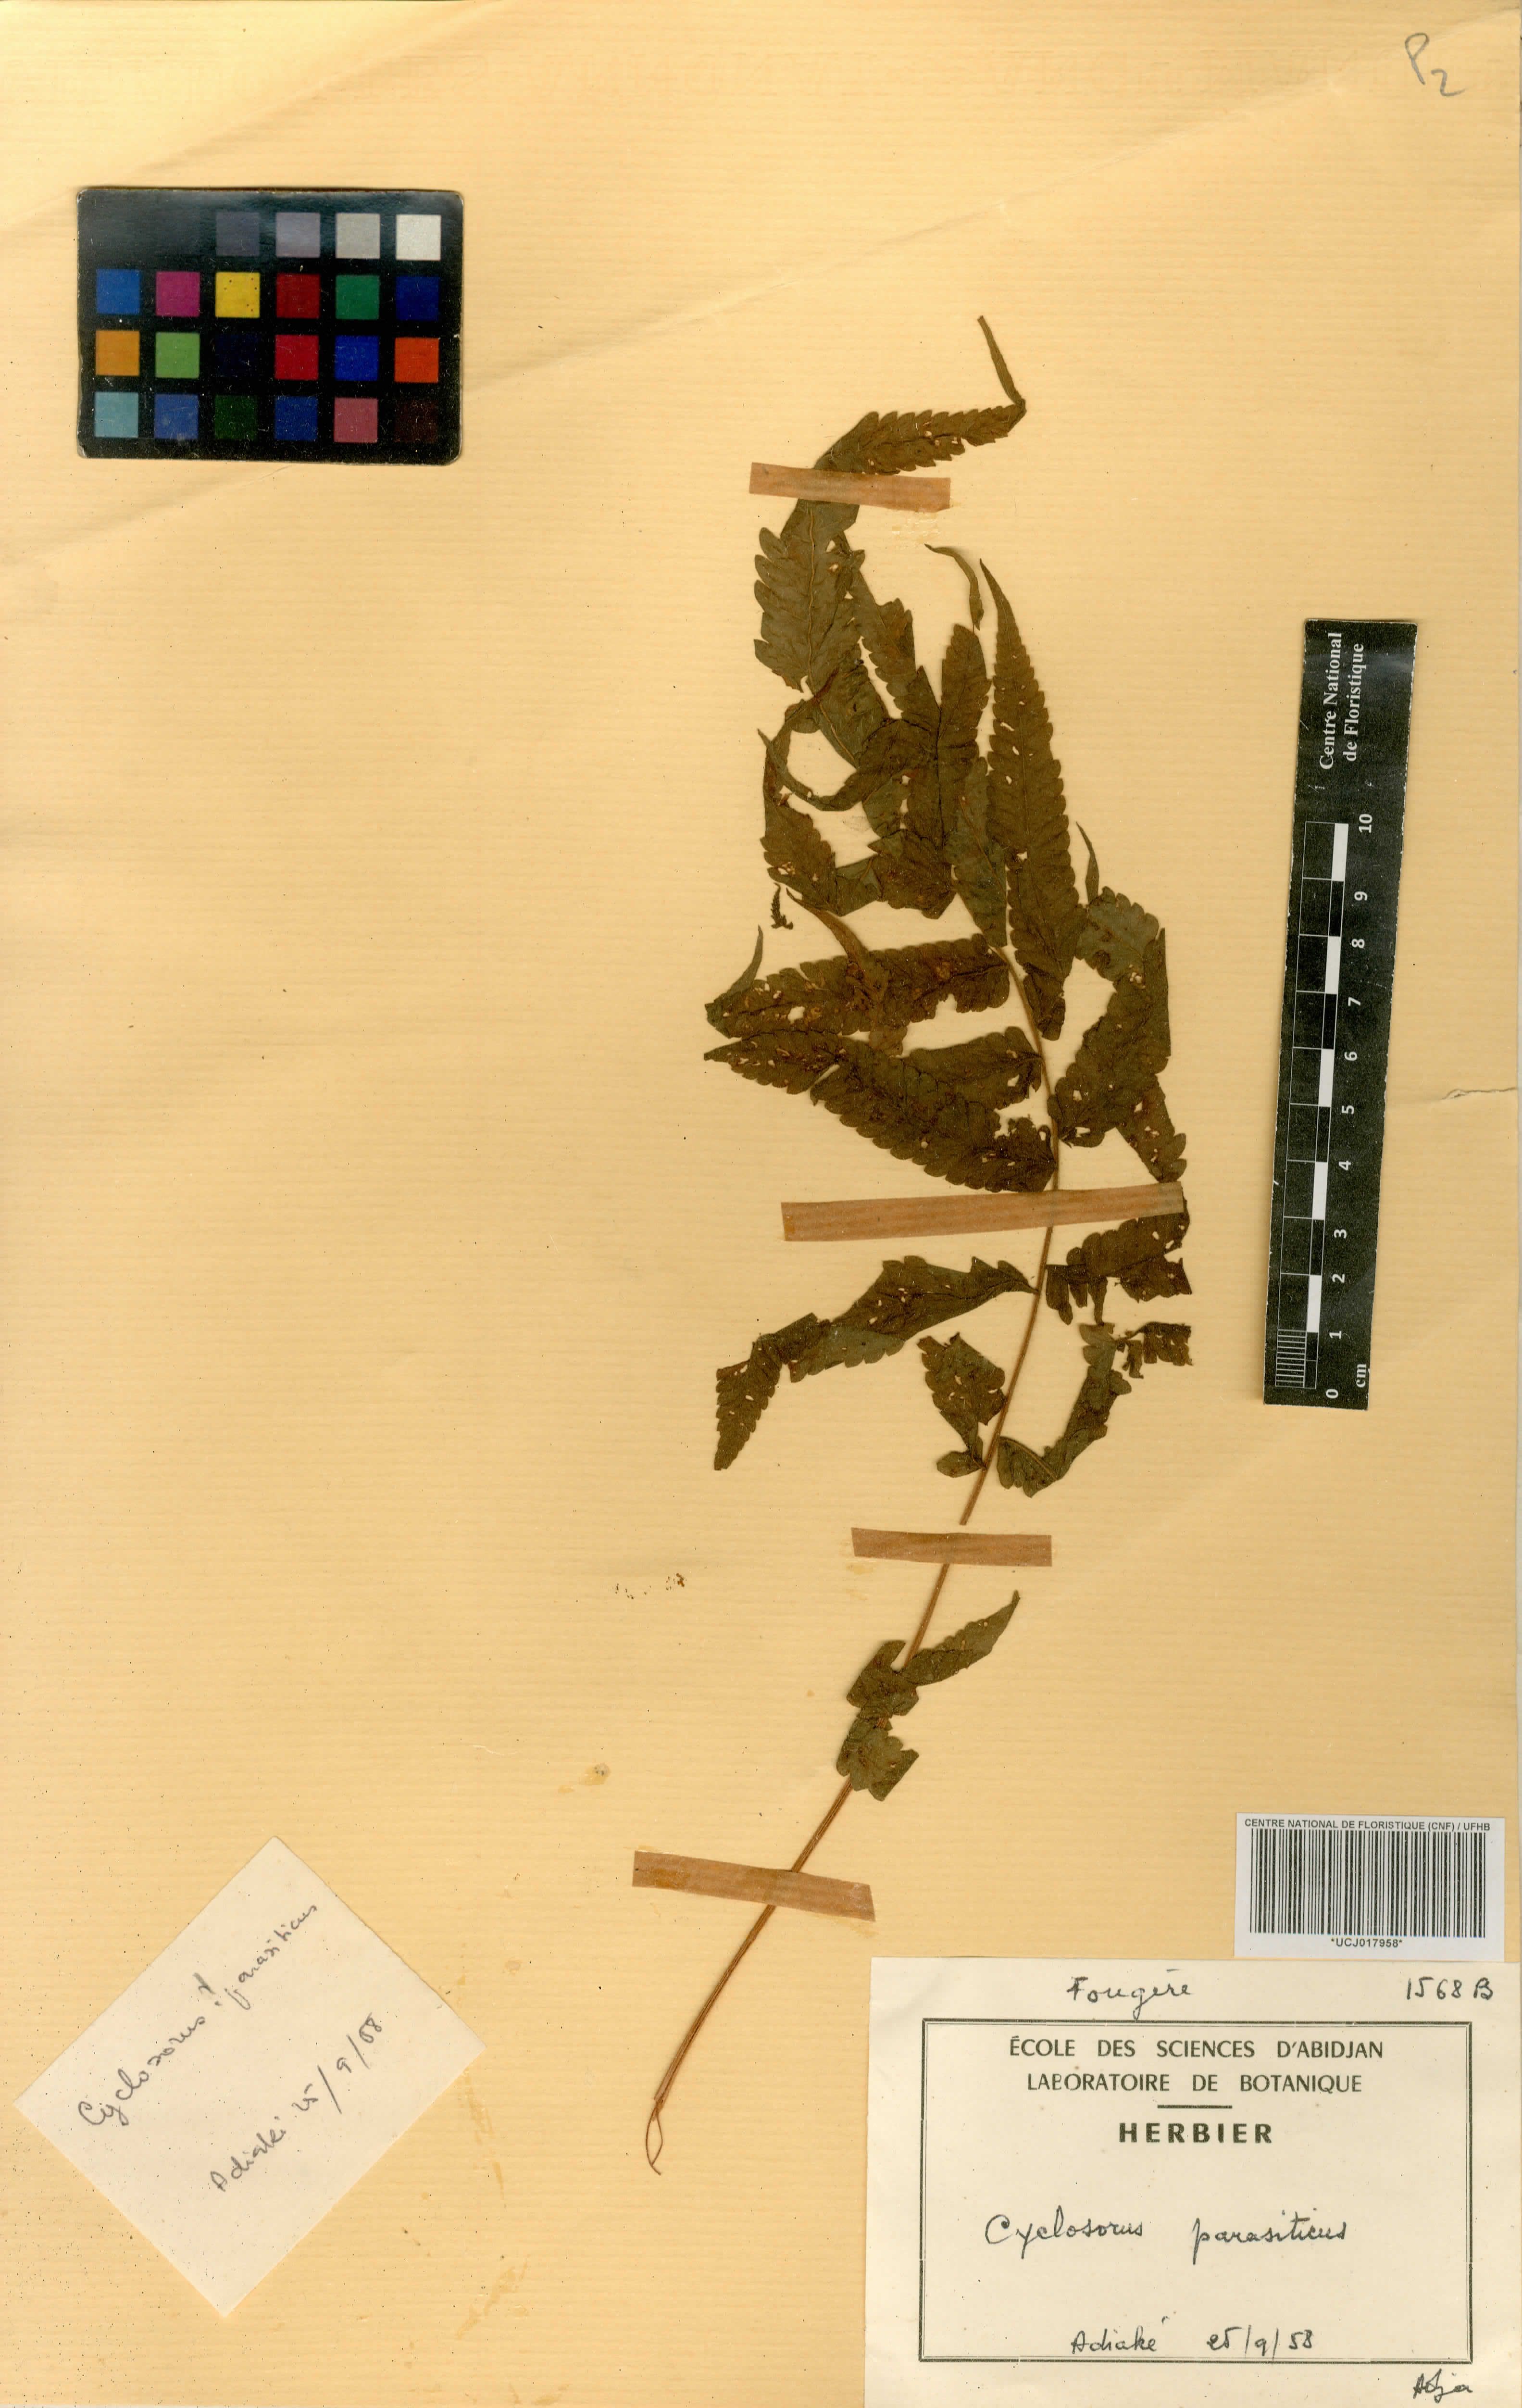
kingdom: Plantae
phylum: Tracheophyta
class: Polypodiopsida
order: Polypodiales
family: Thelypteridaceae
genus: Christella
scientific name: Christella parasitica
